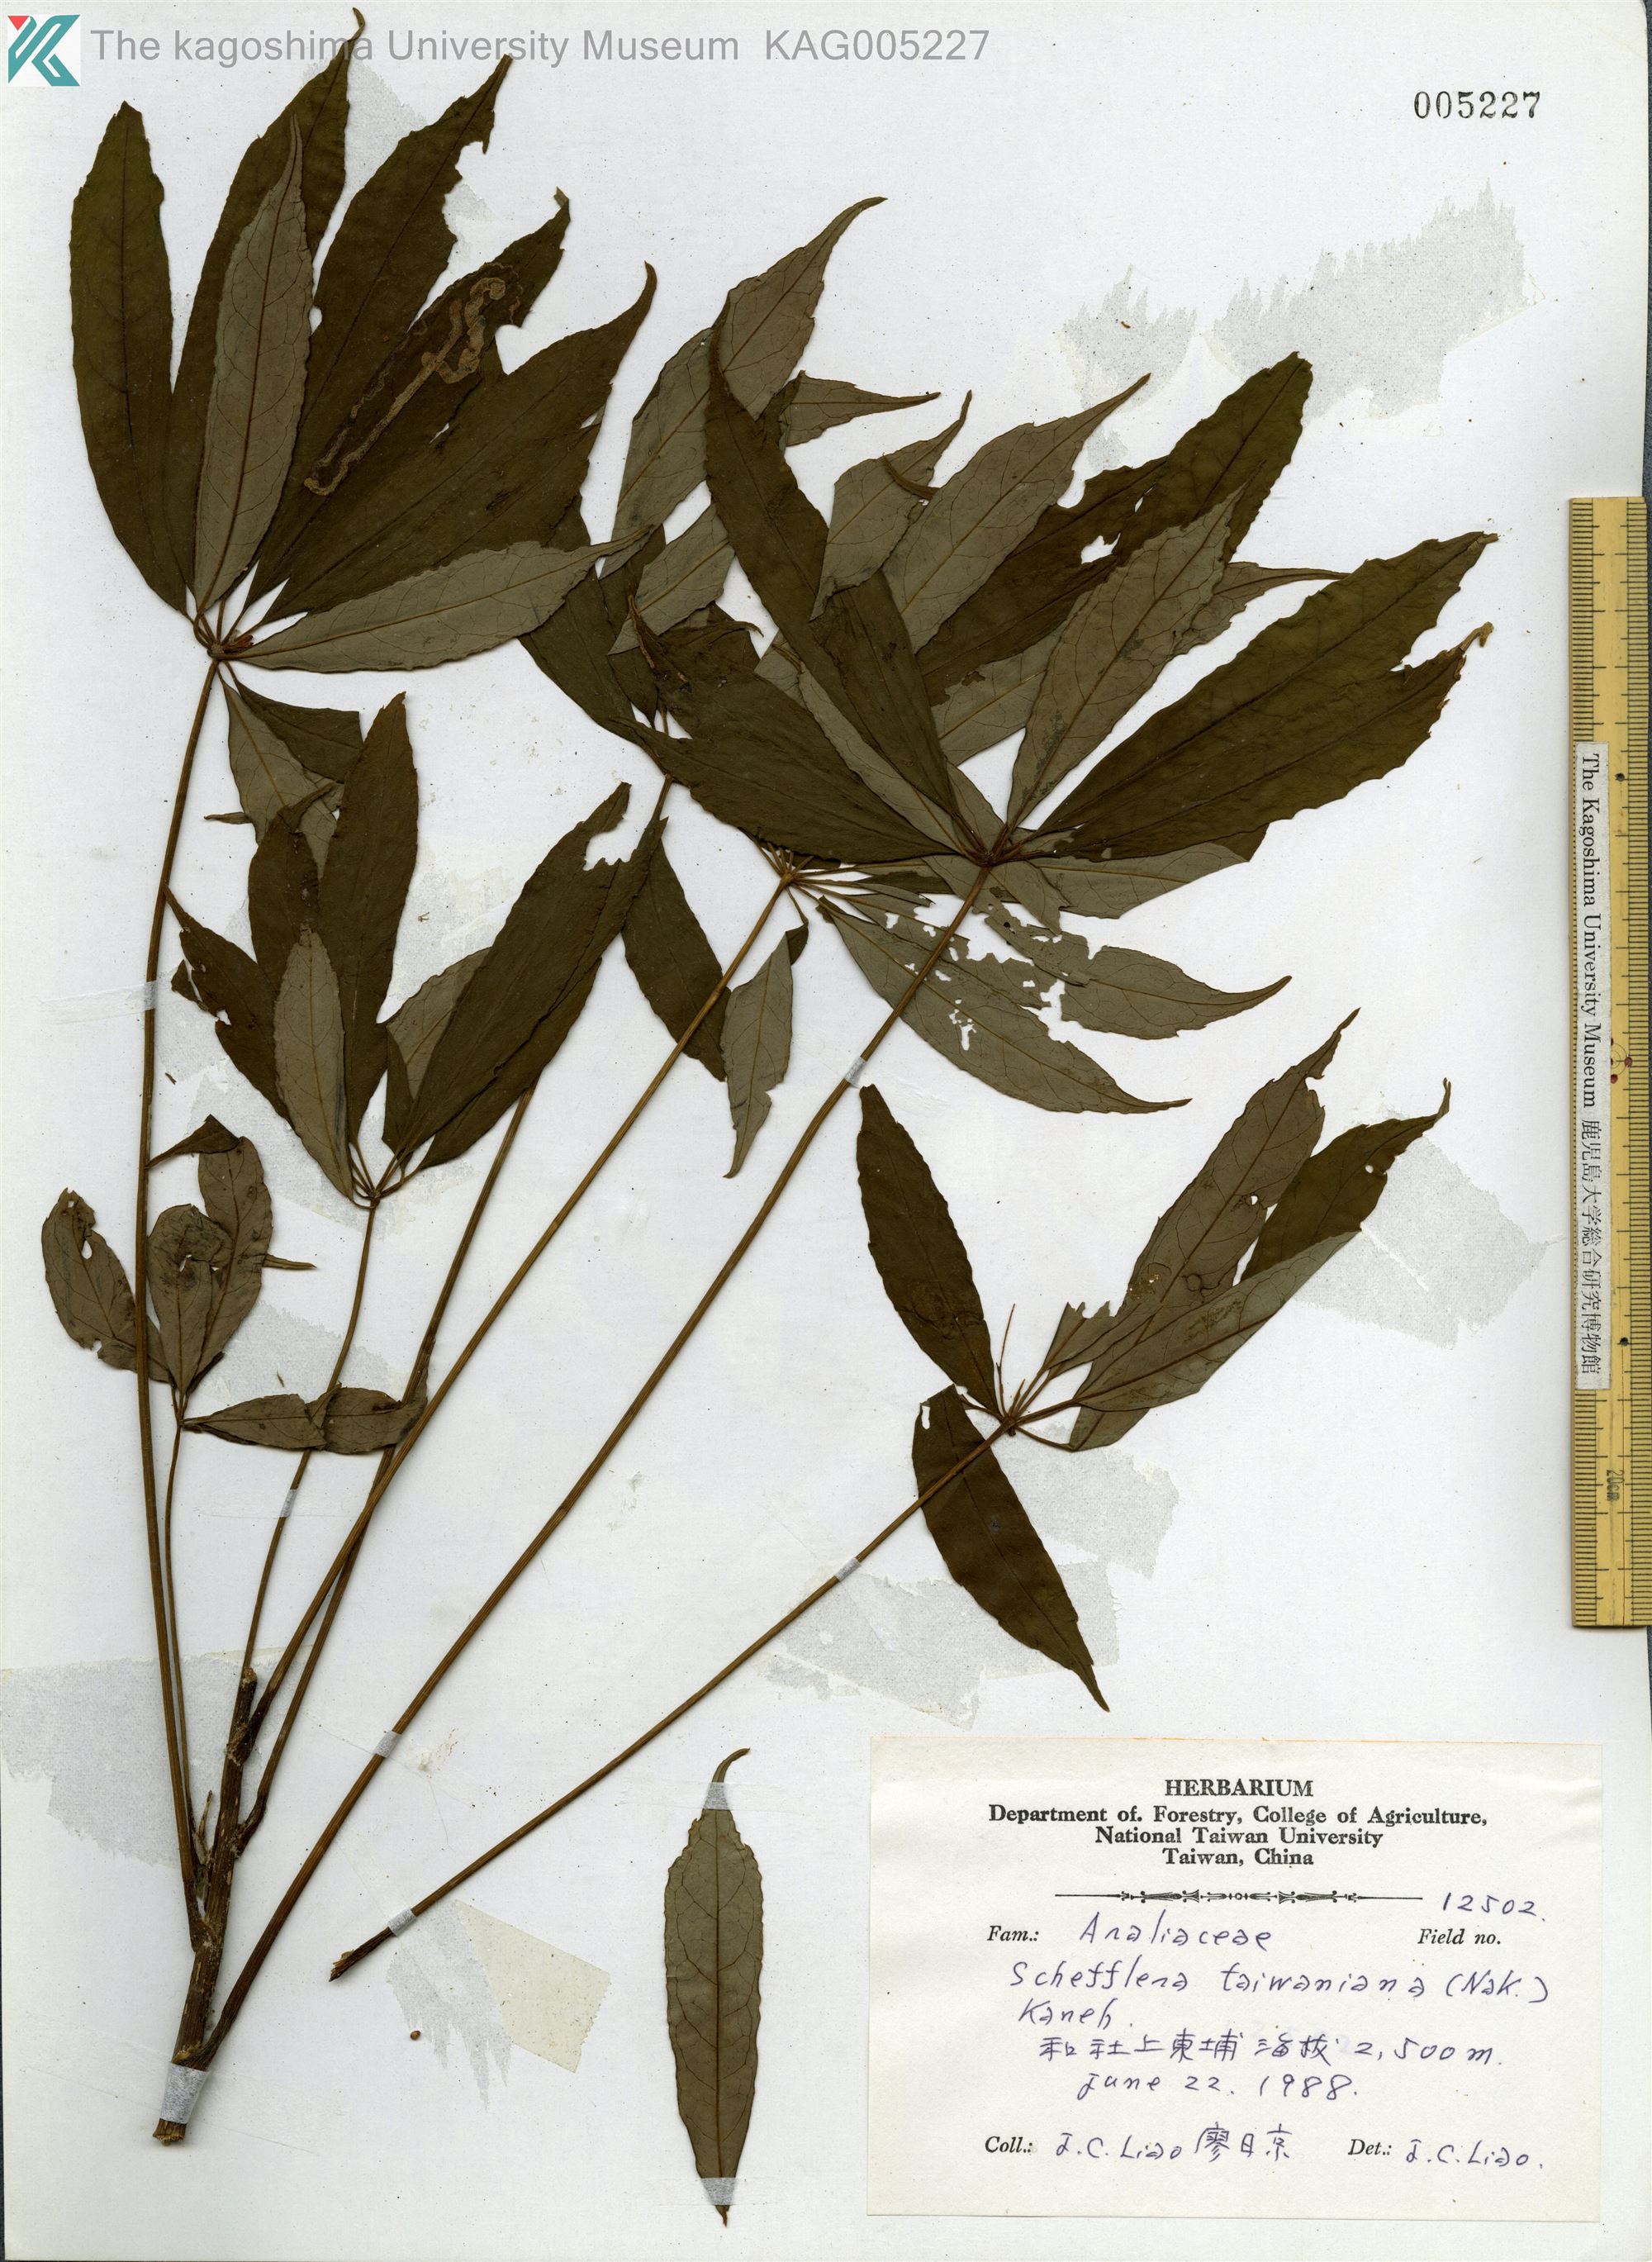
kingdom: Plantae
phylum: Tracheophyta
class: Magnoliopsida
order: Apiales
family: Araliaceae
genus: Heptapleurum
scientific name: Heptapleurum taiwanianum
